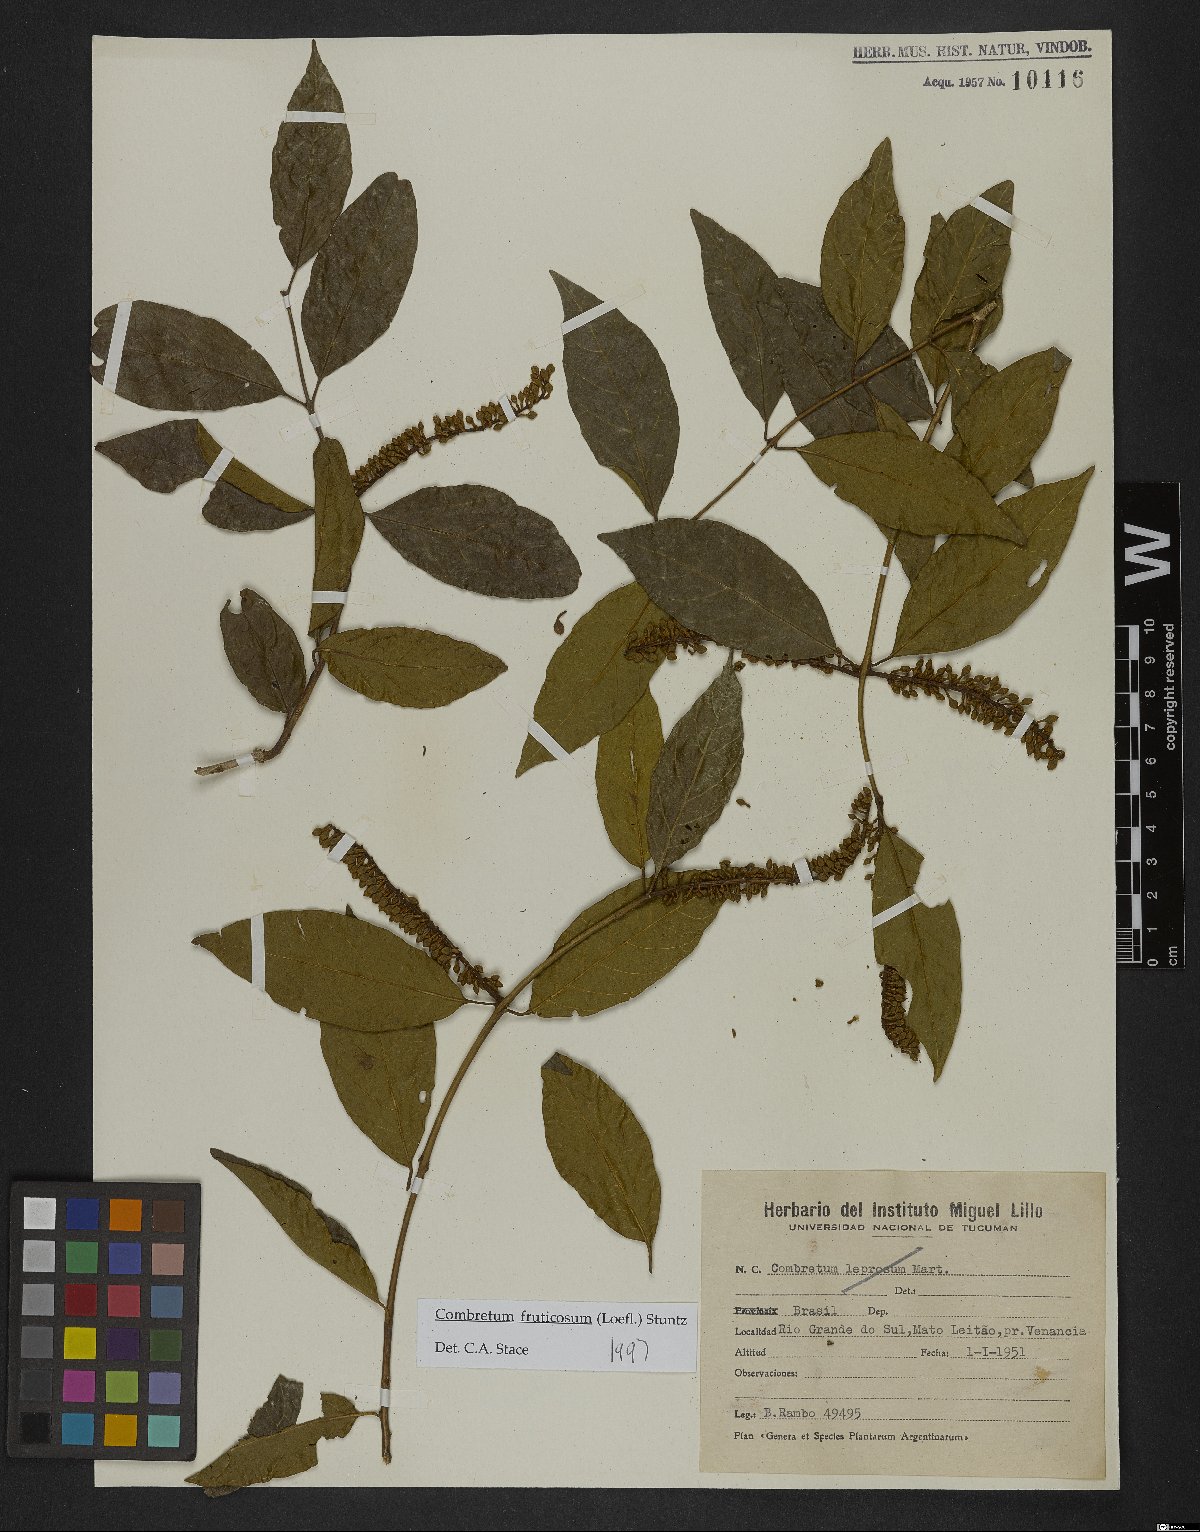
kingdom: Plantae
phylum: Tracheophyta
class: Magnoliopsida
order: Myrtales
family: Combretaceae
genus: Combretum
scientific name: Combretum fruticosum
